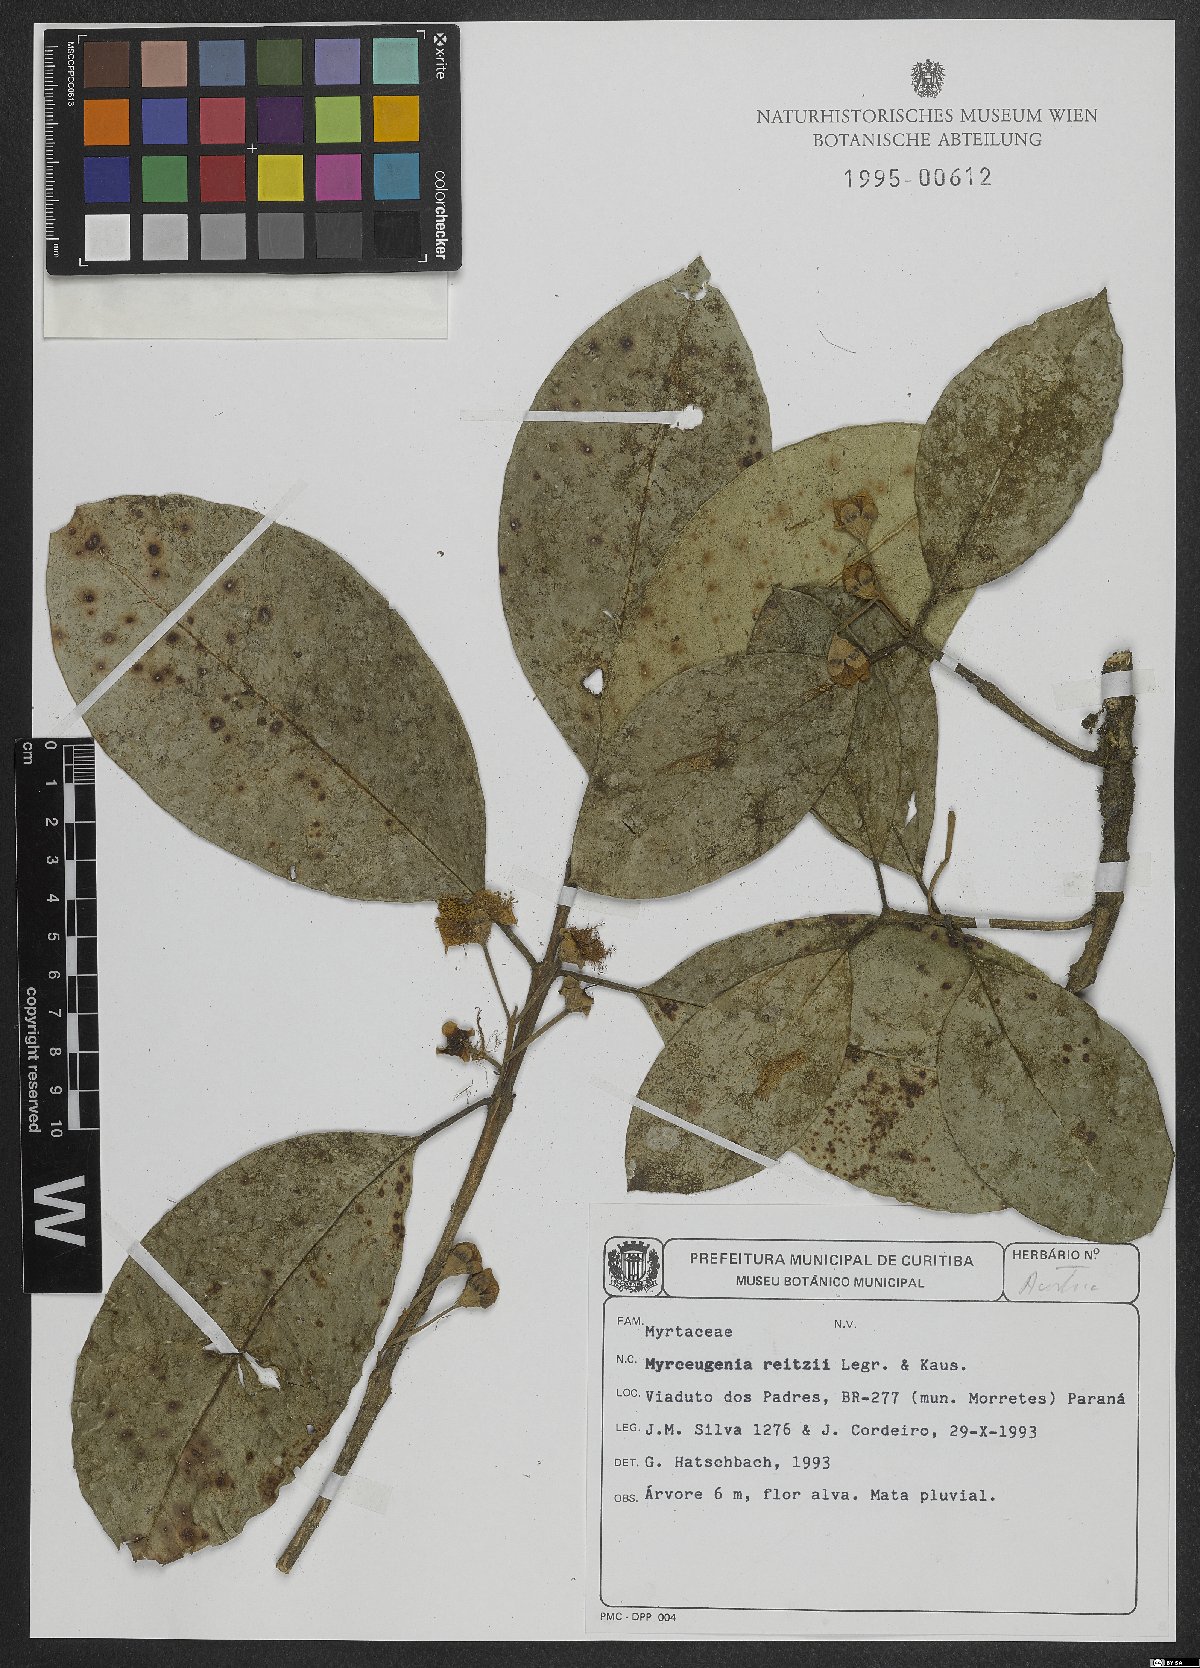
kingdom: Plantae
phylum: Tracheophyta
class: Magnoliopsida
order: Myrtales
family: Myrtaceae
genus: Myrceugenia
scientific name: Myrceugenia reitzii
